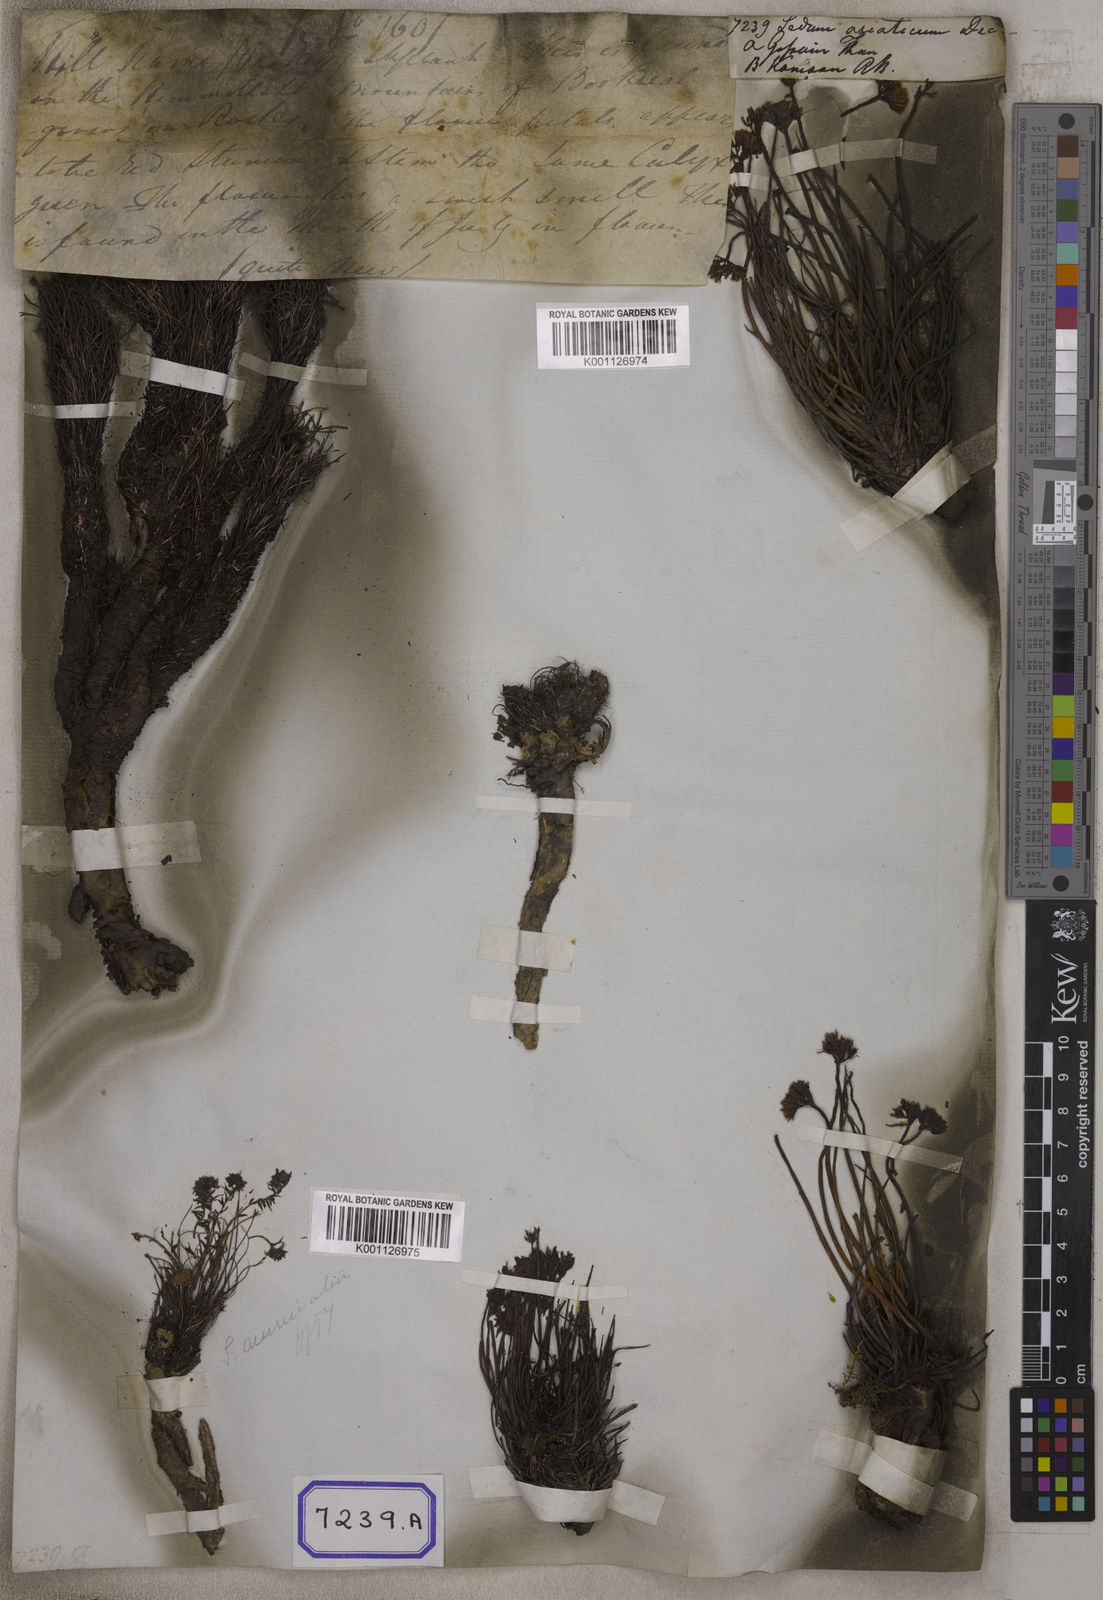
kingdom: Plantae
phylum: Tracheophyta
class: Magnoliopsida
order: Saxifragales
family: Crassulaceae
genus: Sedum
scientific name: Sedum
